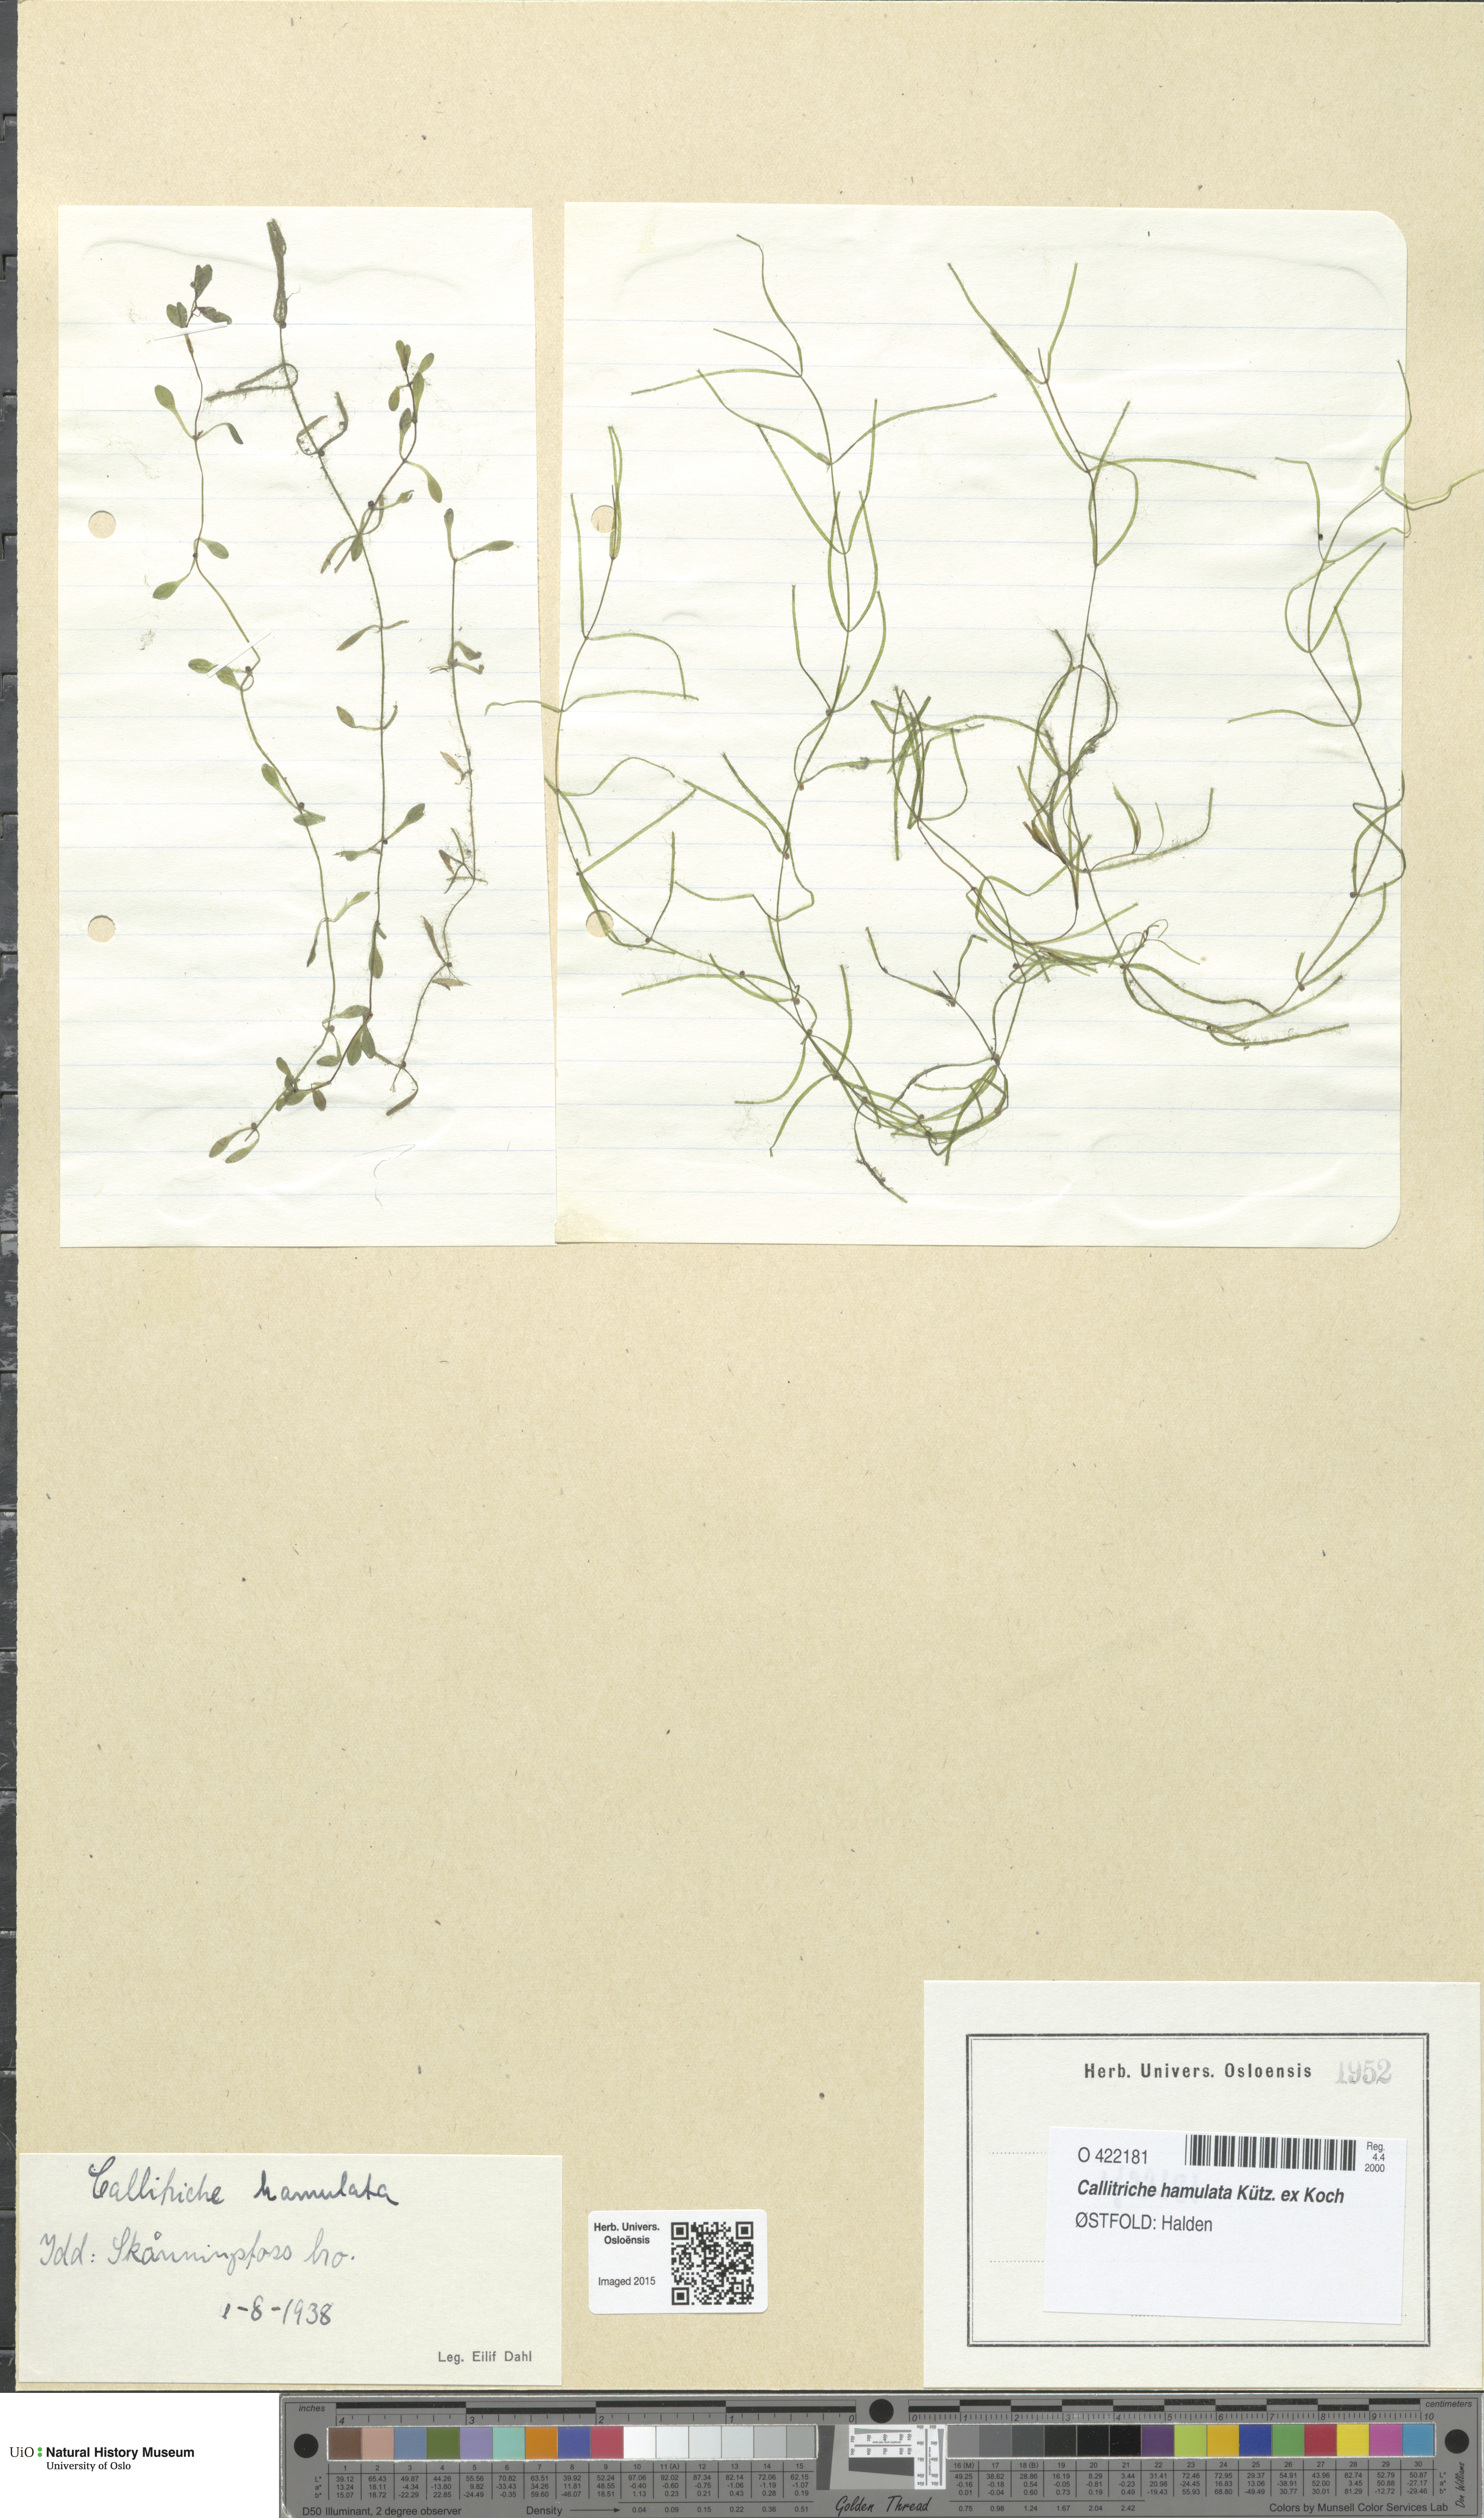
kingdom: Plantae
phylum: Tracheophyta
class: Magnoliopsida
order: Lamiales
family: Plantaginaceae
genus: Callitriche
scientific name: Callitriche hamulata
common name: Intermediate water-starwort
